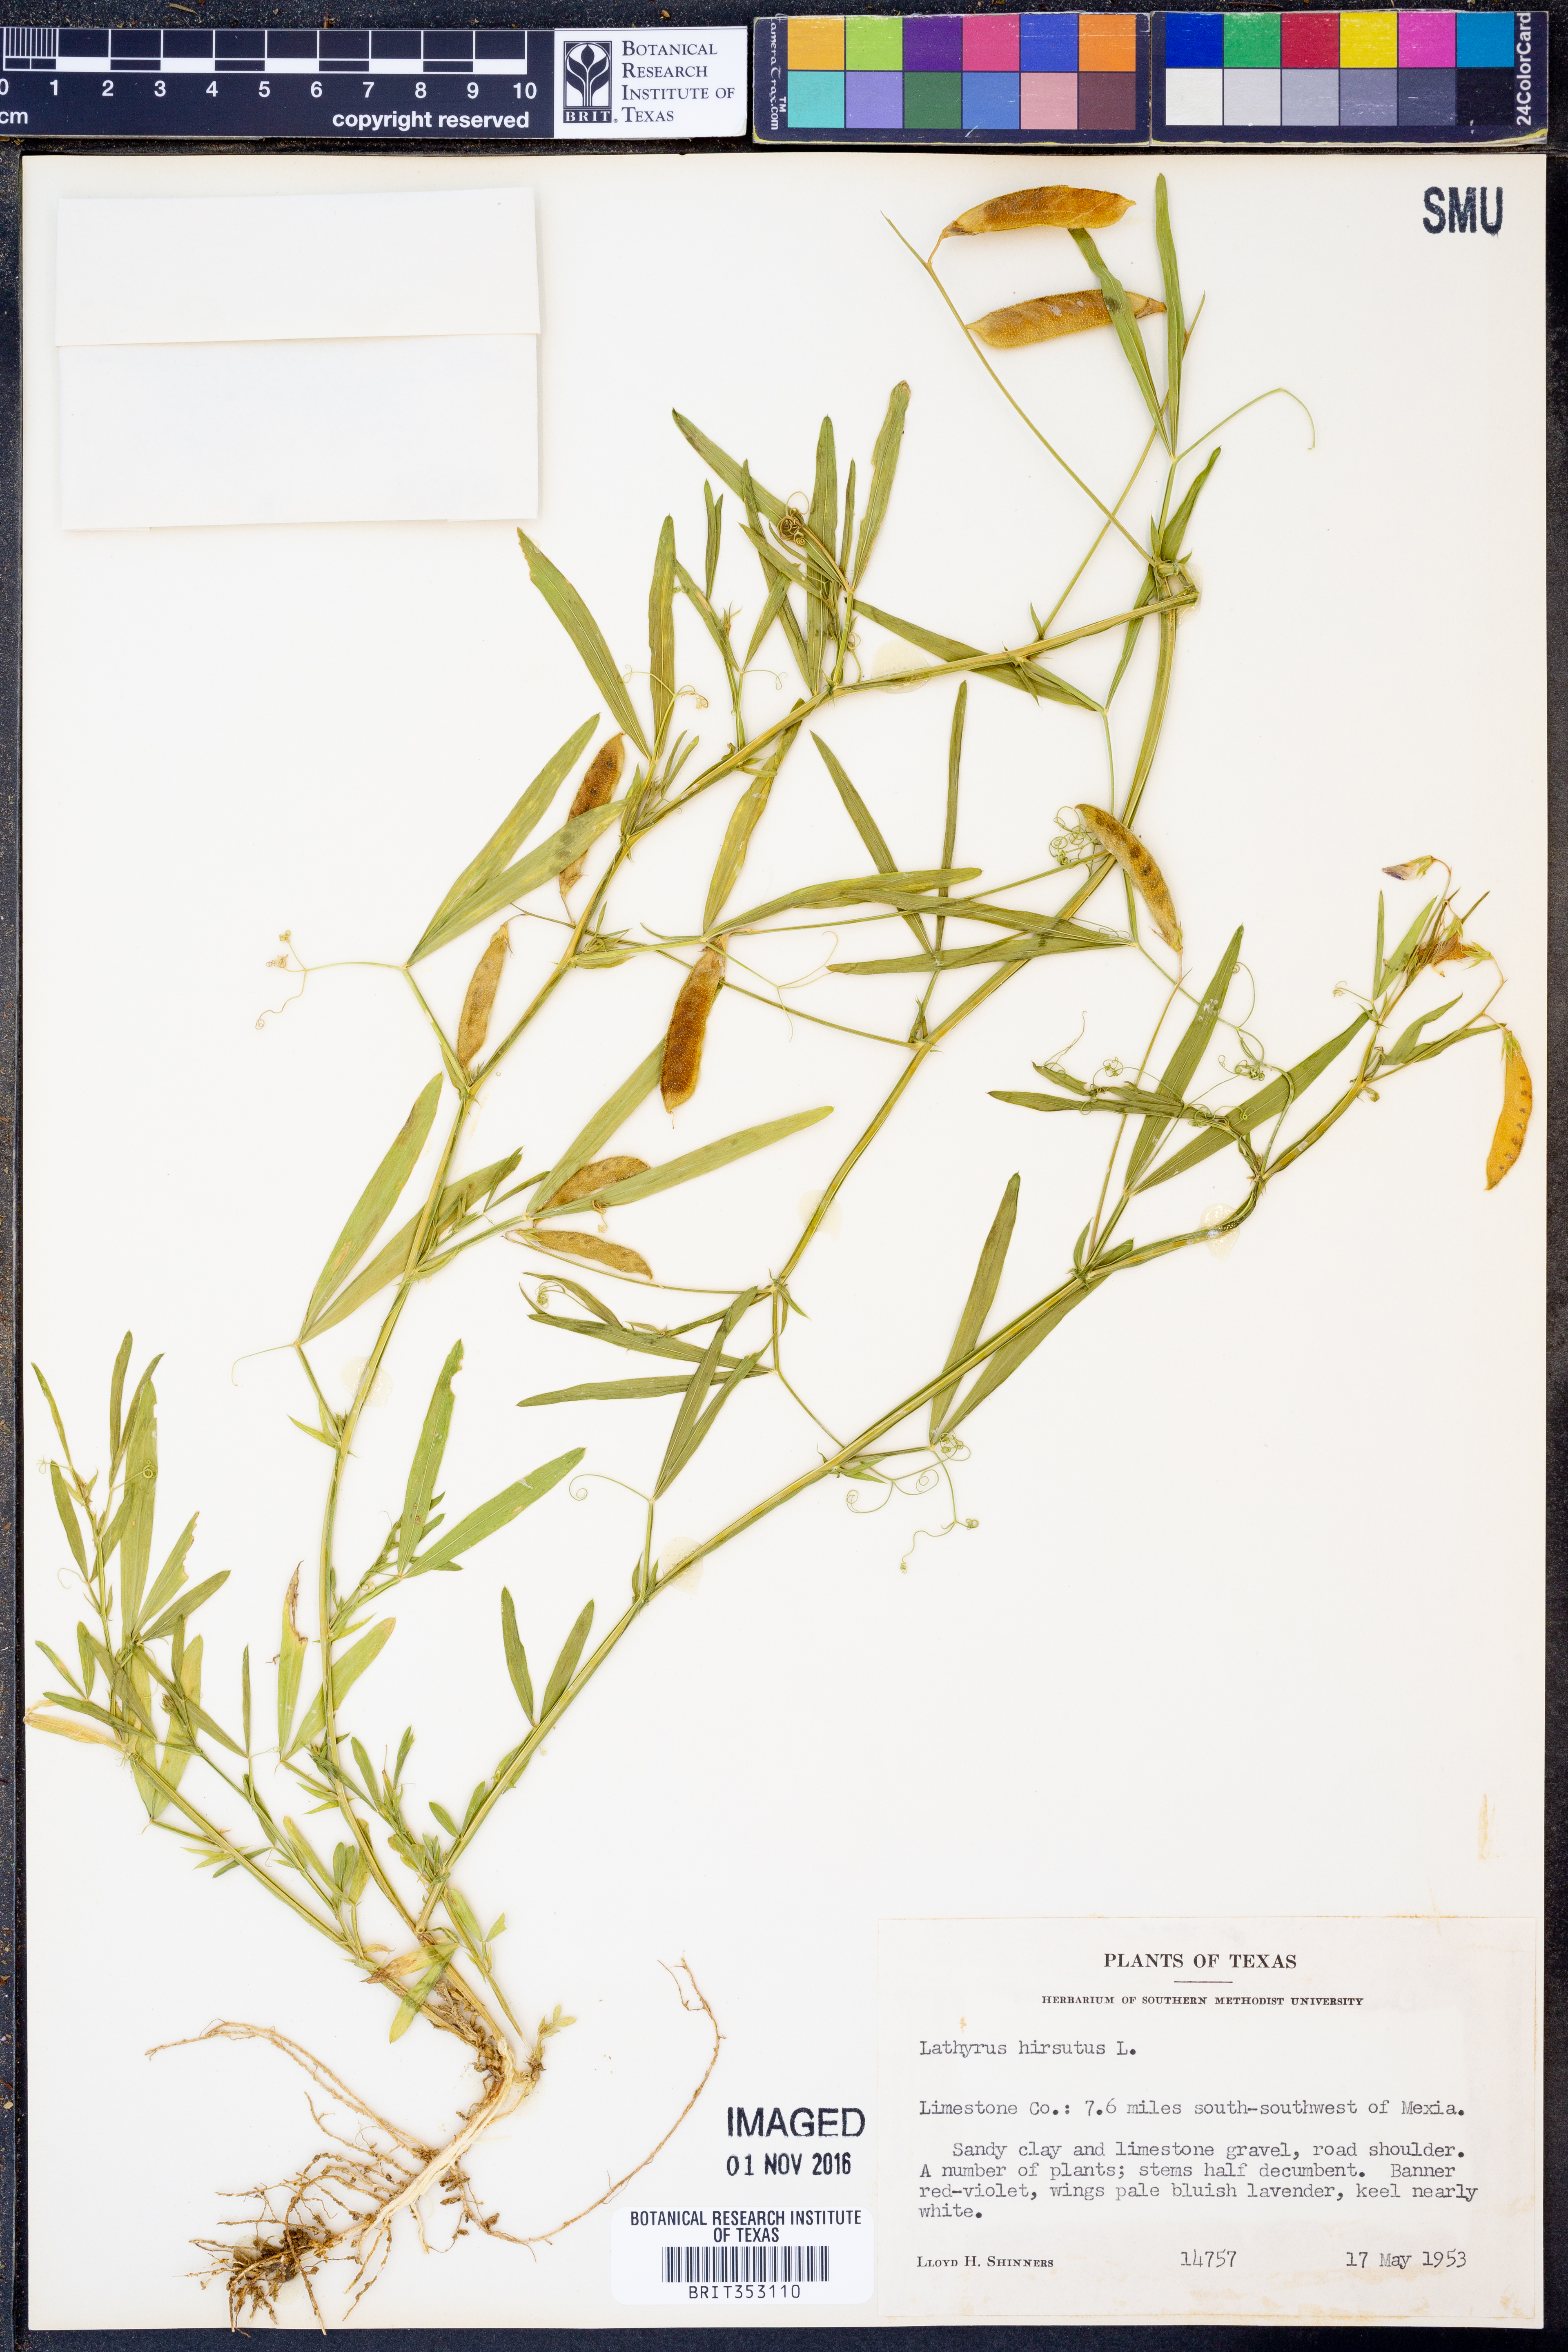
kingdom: Plantae
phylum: Tracheophyta
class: Magnoliopsida
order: Fabales
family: Fabaceae
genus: Lathyrus
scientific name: Lathyrus hirsutus
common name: Hairy vetchling
